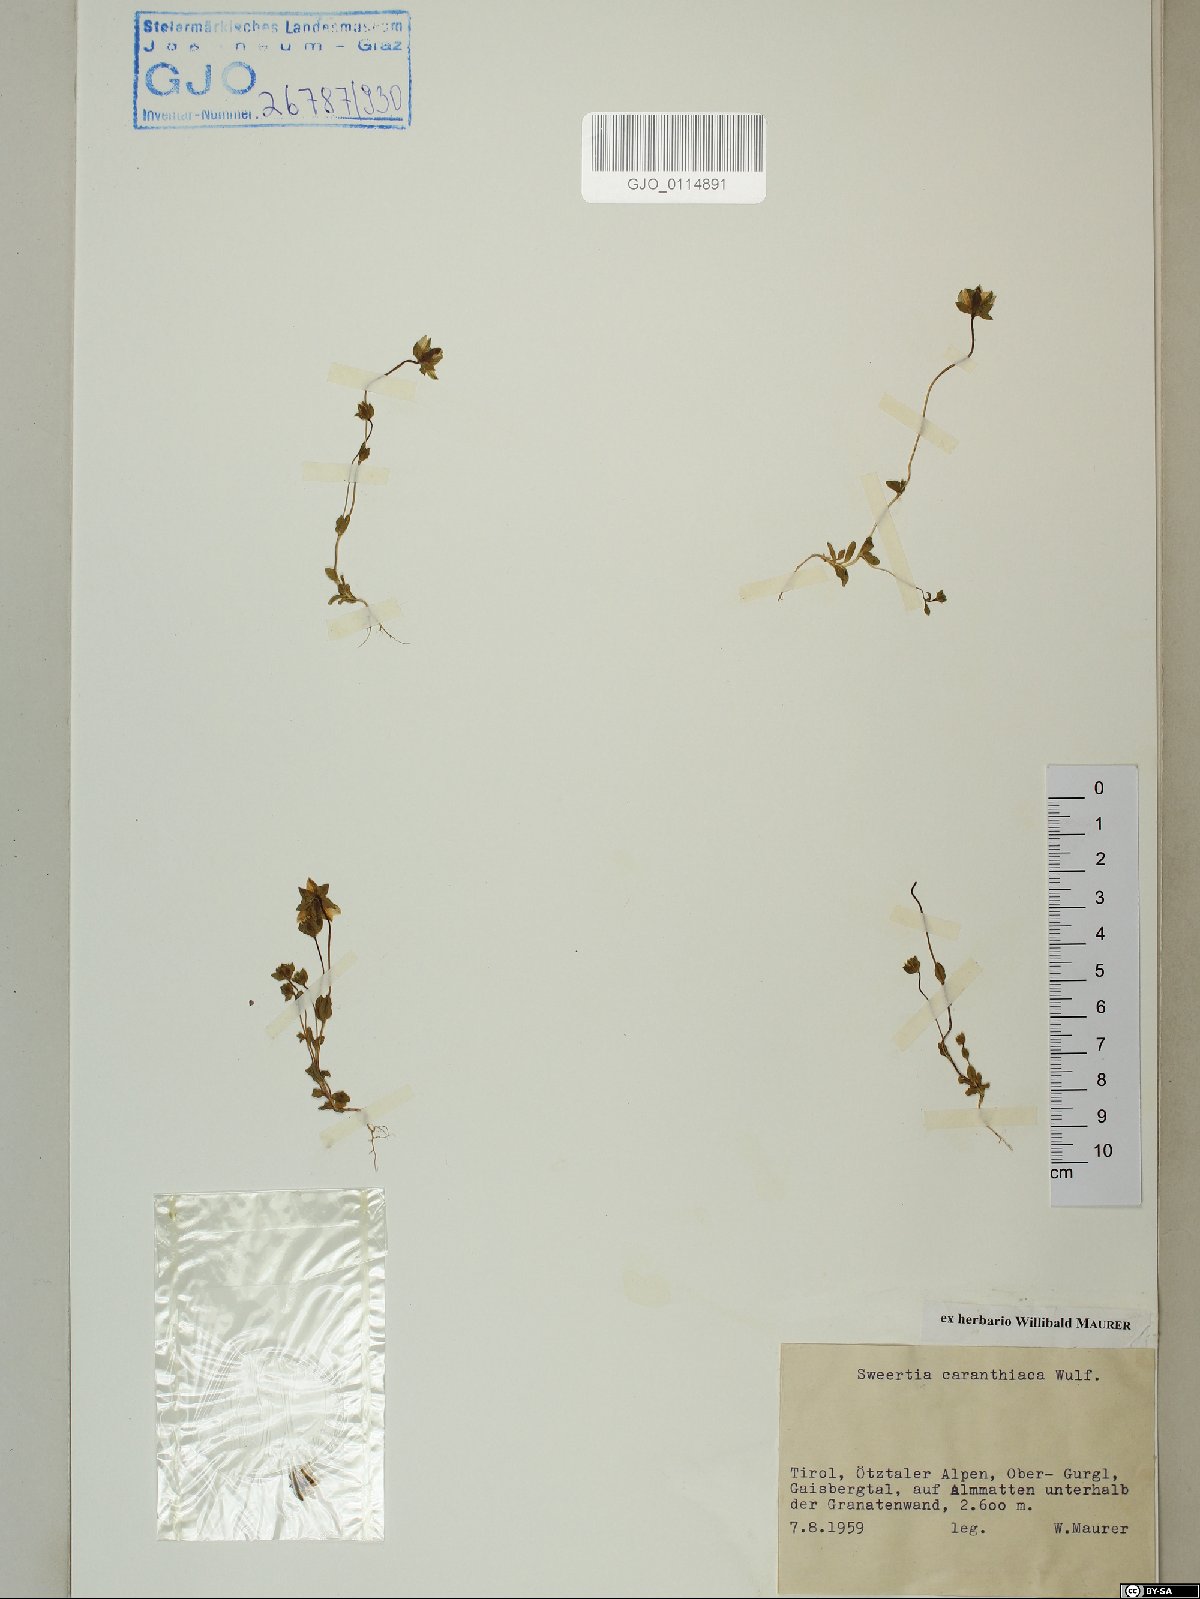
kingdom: Plantae
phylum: Tracheophyta
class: Magnoliopsida
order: Gentianales
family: Gentianaceae
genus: Lomatogonium
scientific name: Lomatogonium carinthiacum
